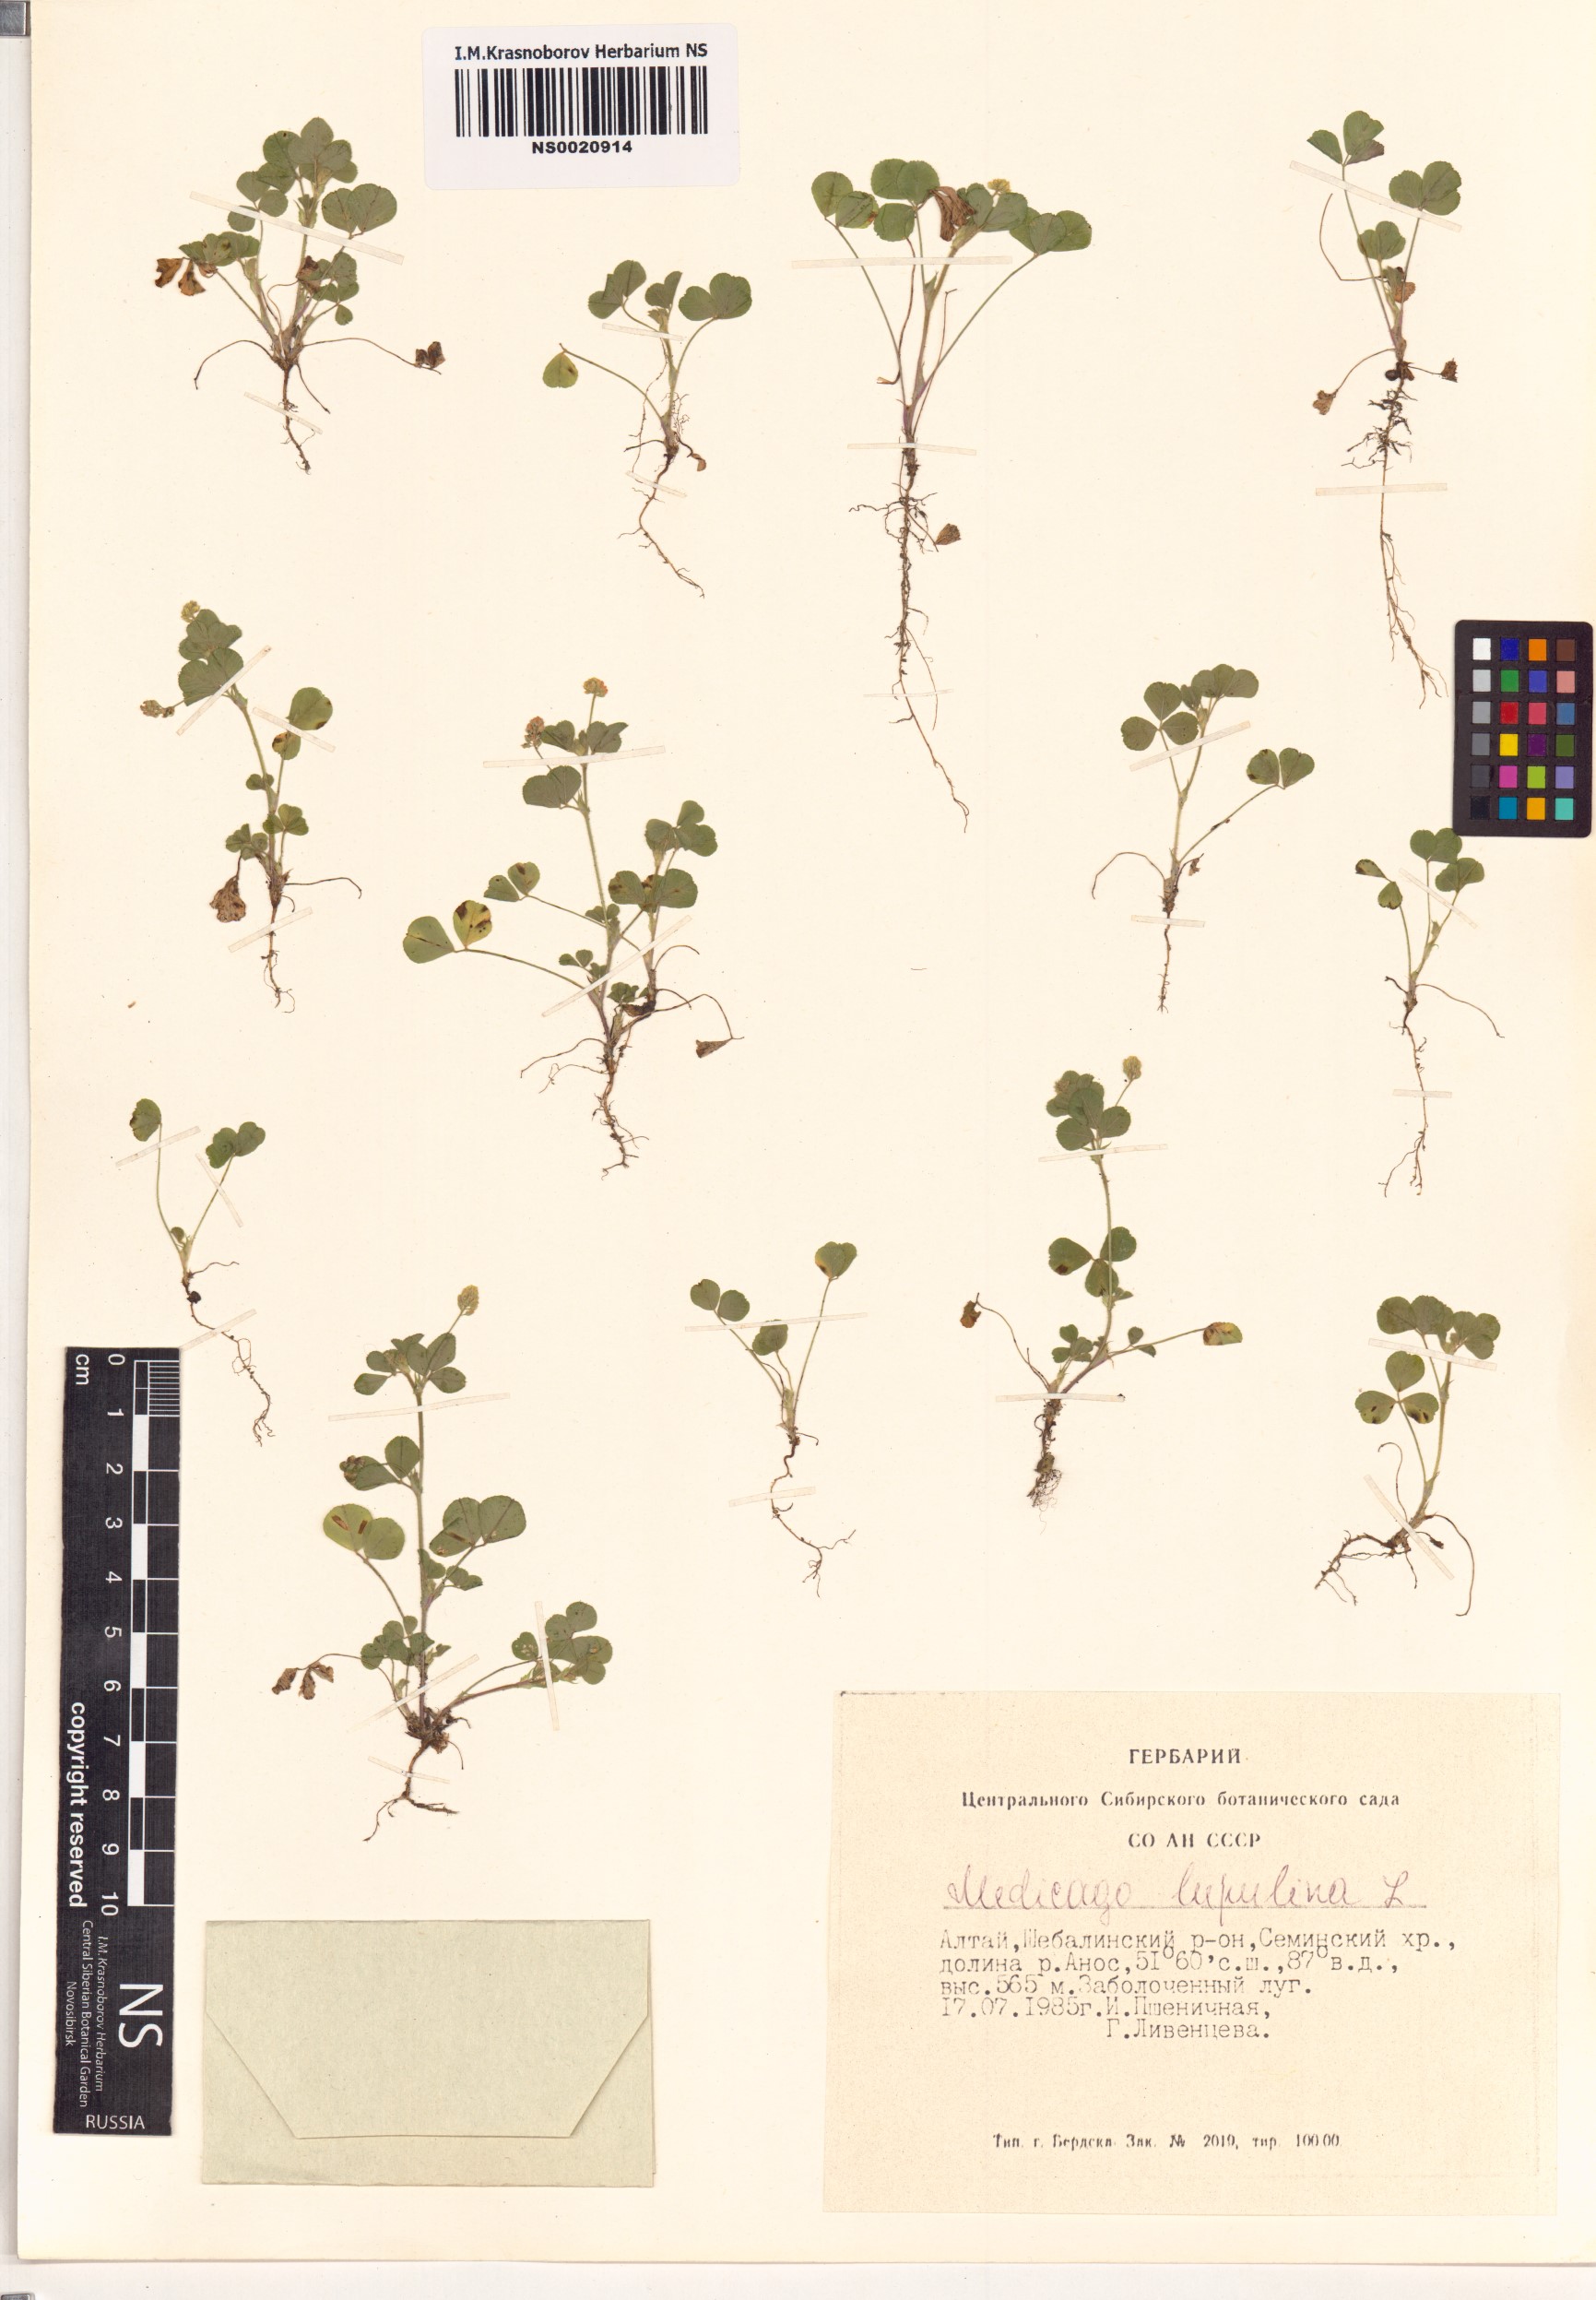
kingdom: Plantae
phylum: Tracheophyta
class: Magnoliopsida
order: Fabales
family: Fabaceae
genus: Medicago
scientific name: Medicago lupulina
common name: Black medick
